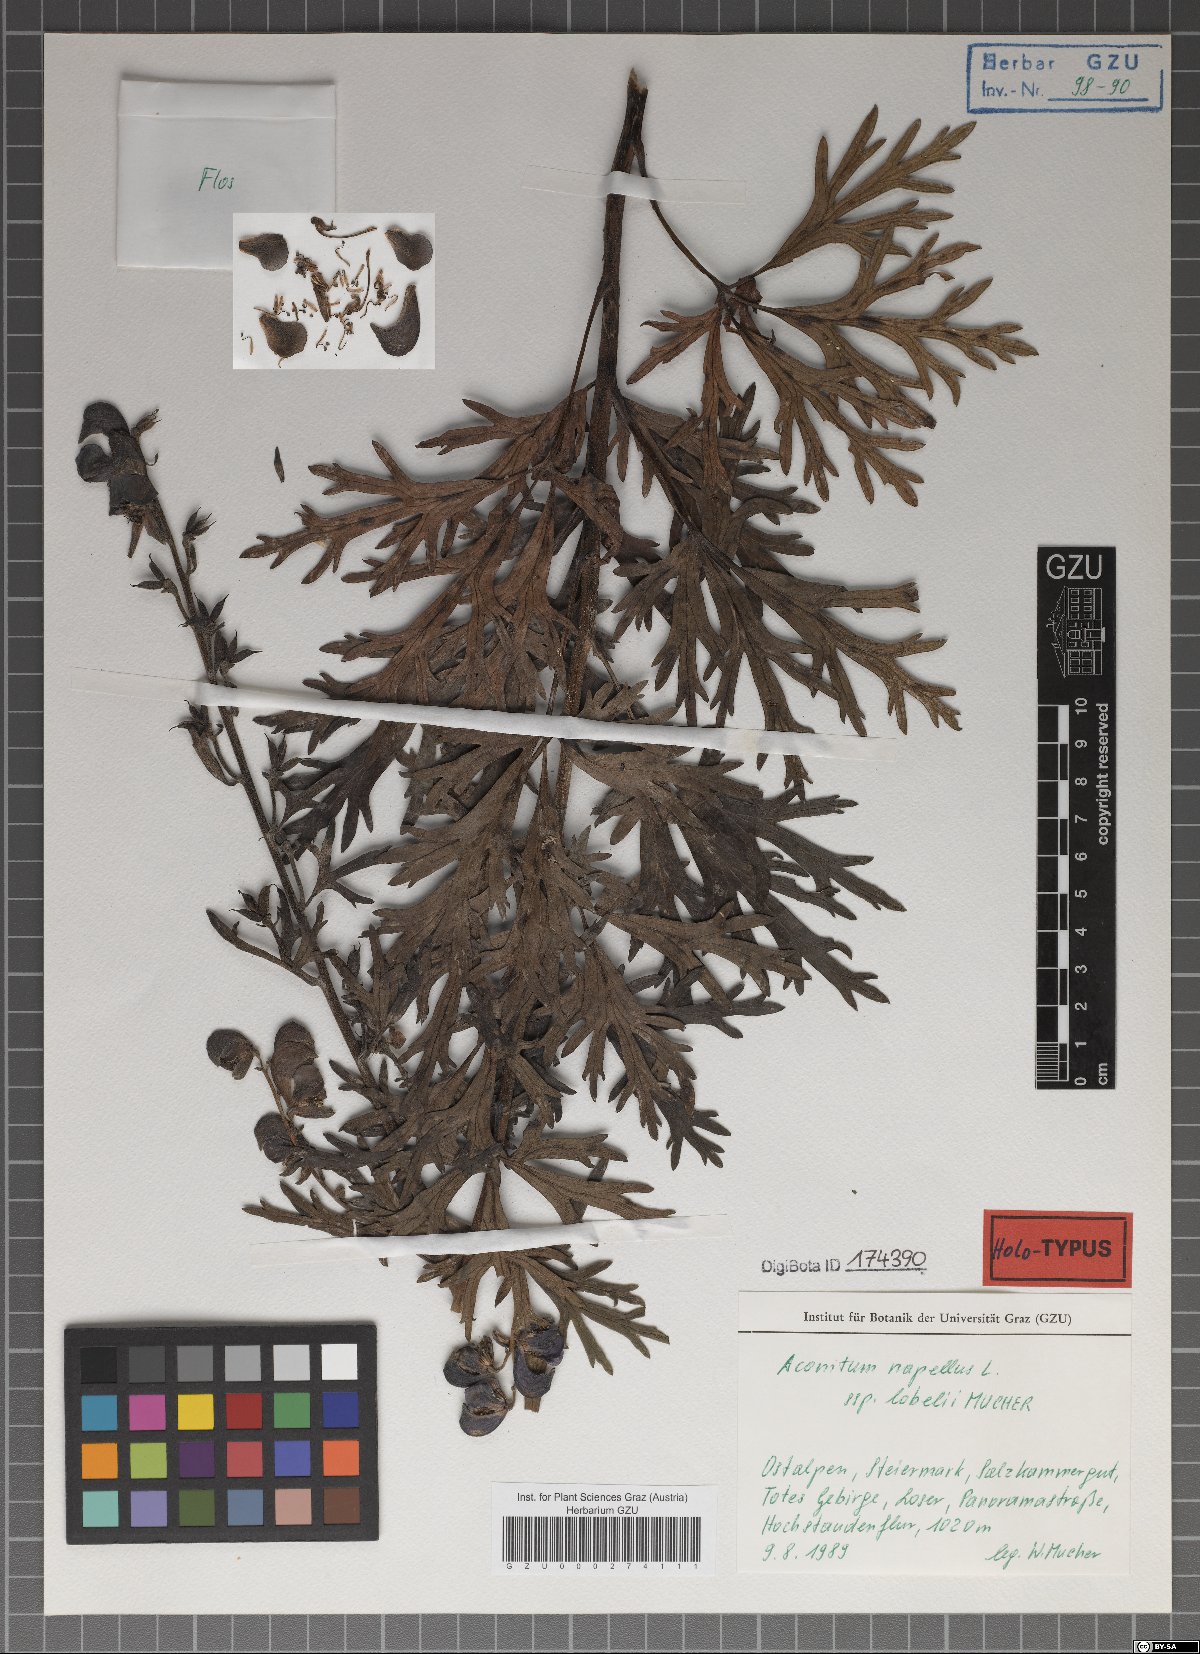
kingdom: Plantae
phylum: Tracheophyta
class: Magnoliopsida
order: Ranunculales
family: Ranunculaceae
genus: Aconitum
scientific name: Aconitum napellus
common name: Garden monkshood
